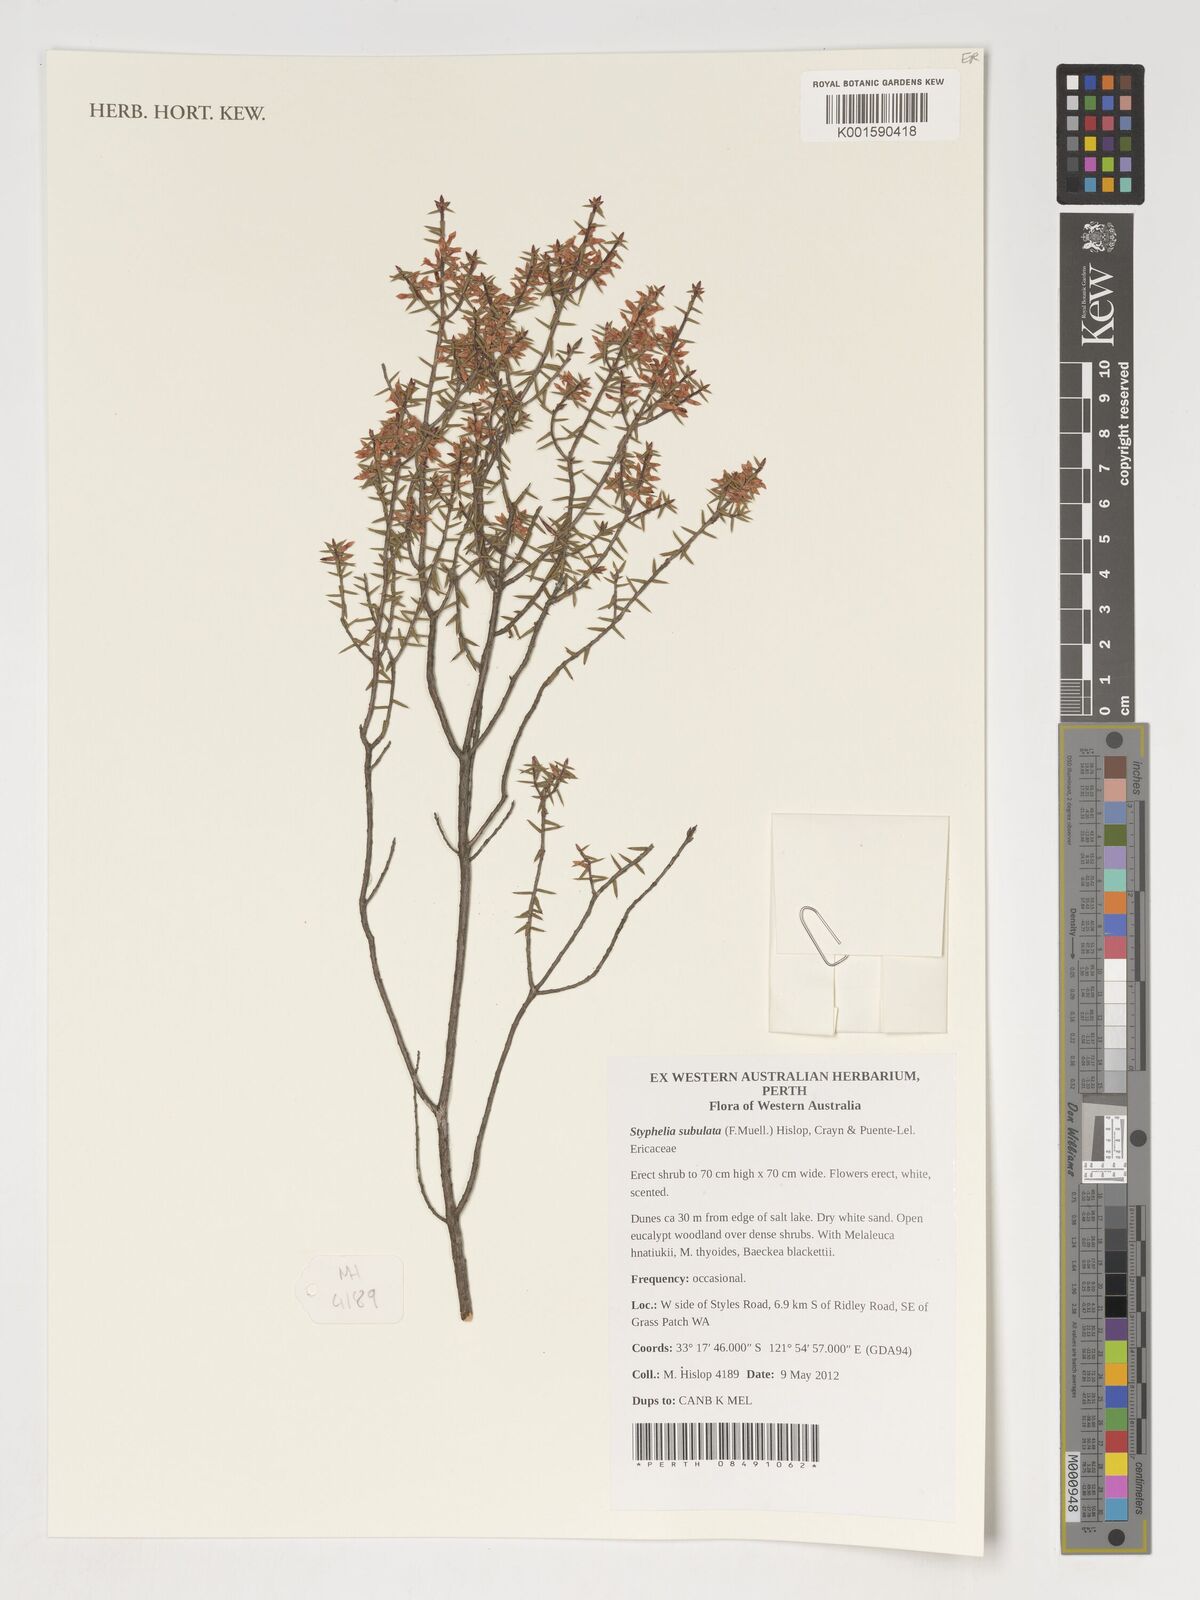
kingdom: Plantae
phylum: Tracheophyta
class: Magnoliopsida
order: Ericales
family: Ericaceae
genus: Styphelia
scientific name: Styphelia
